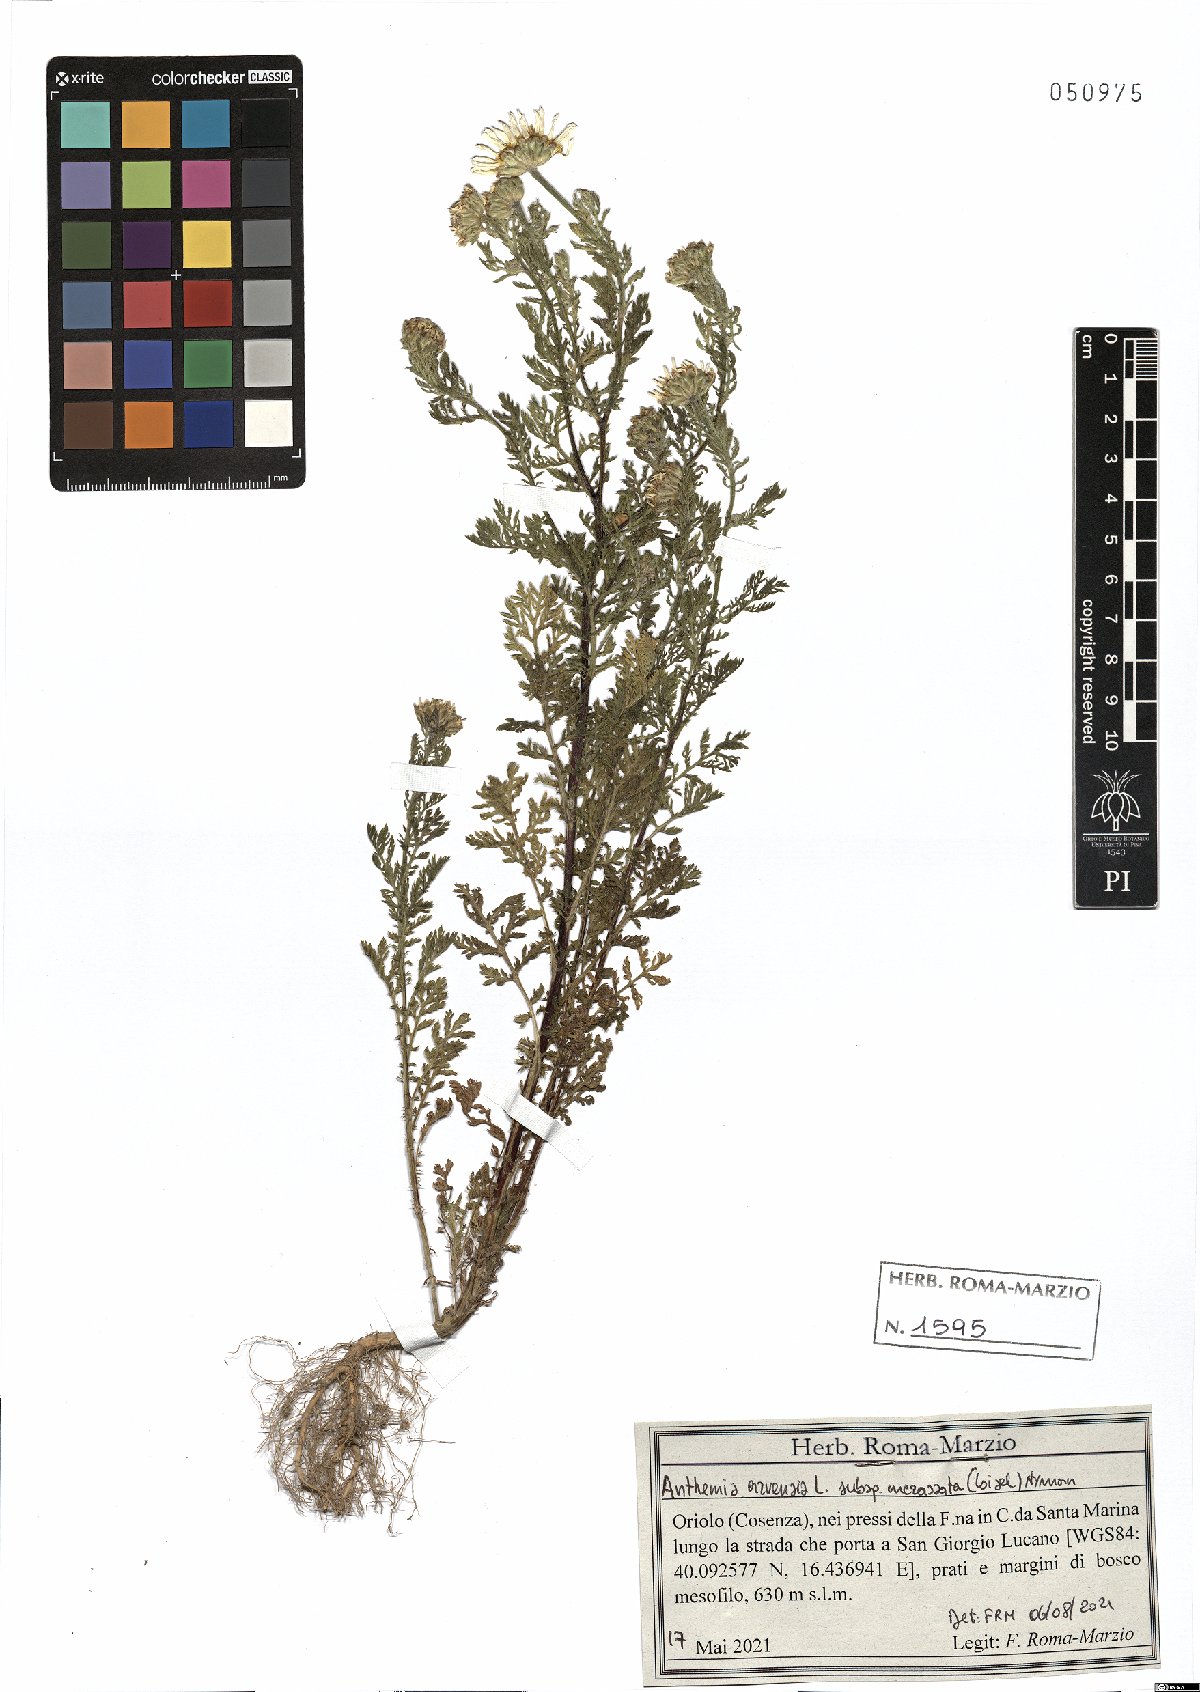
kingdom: Plantae
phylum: Tracheophyta
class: Magnoliopsida
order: Asterales
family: Asteraceae
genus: Anthemis
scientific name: Anthemis arvensis
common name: Corn chamomile
